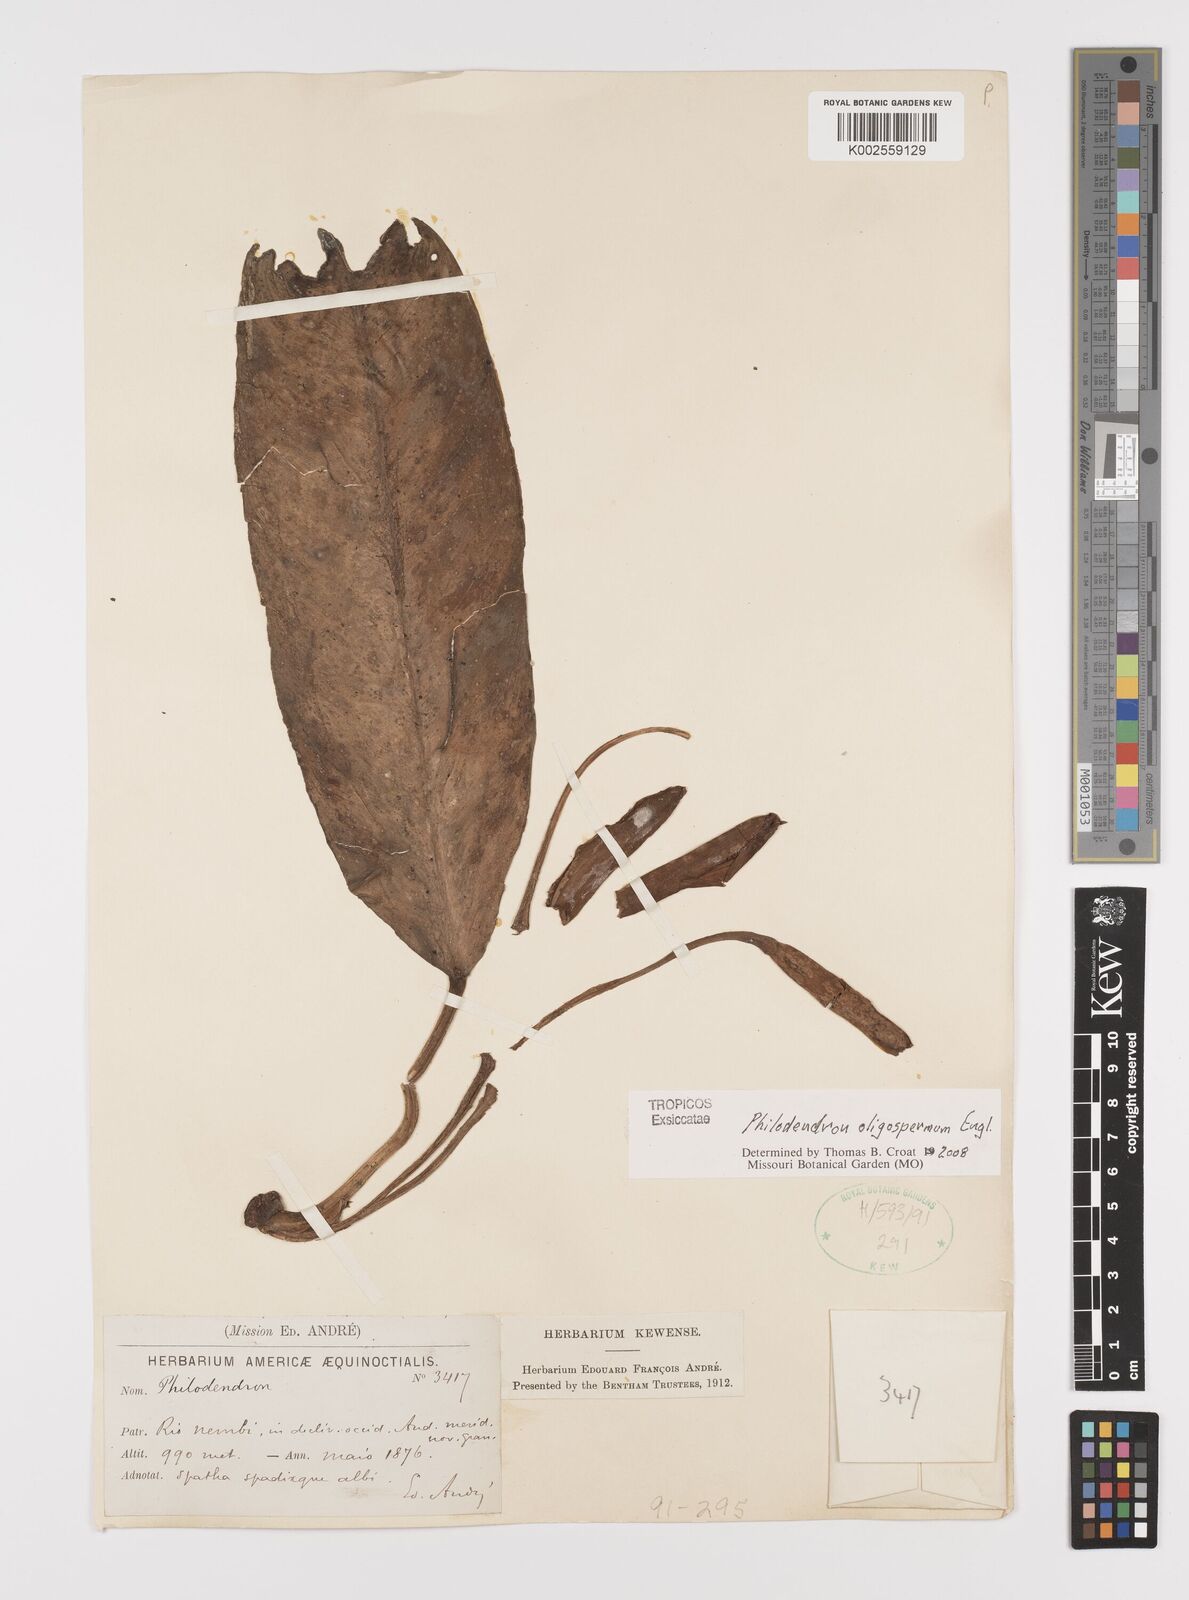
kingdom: Plantae
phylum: Tracheophyta
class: Liliopsida
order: Alismatales
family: Araceae
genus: Philodendron
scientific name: Philodendron oligospermum
